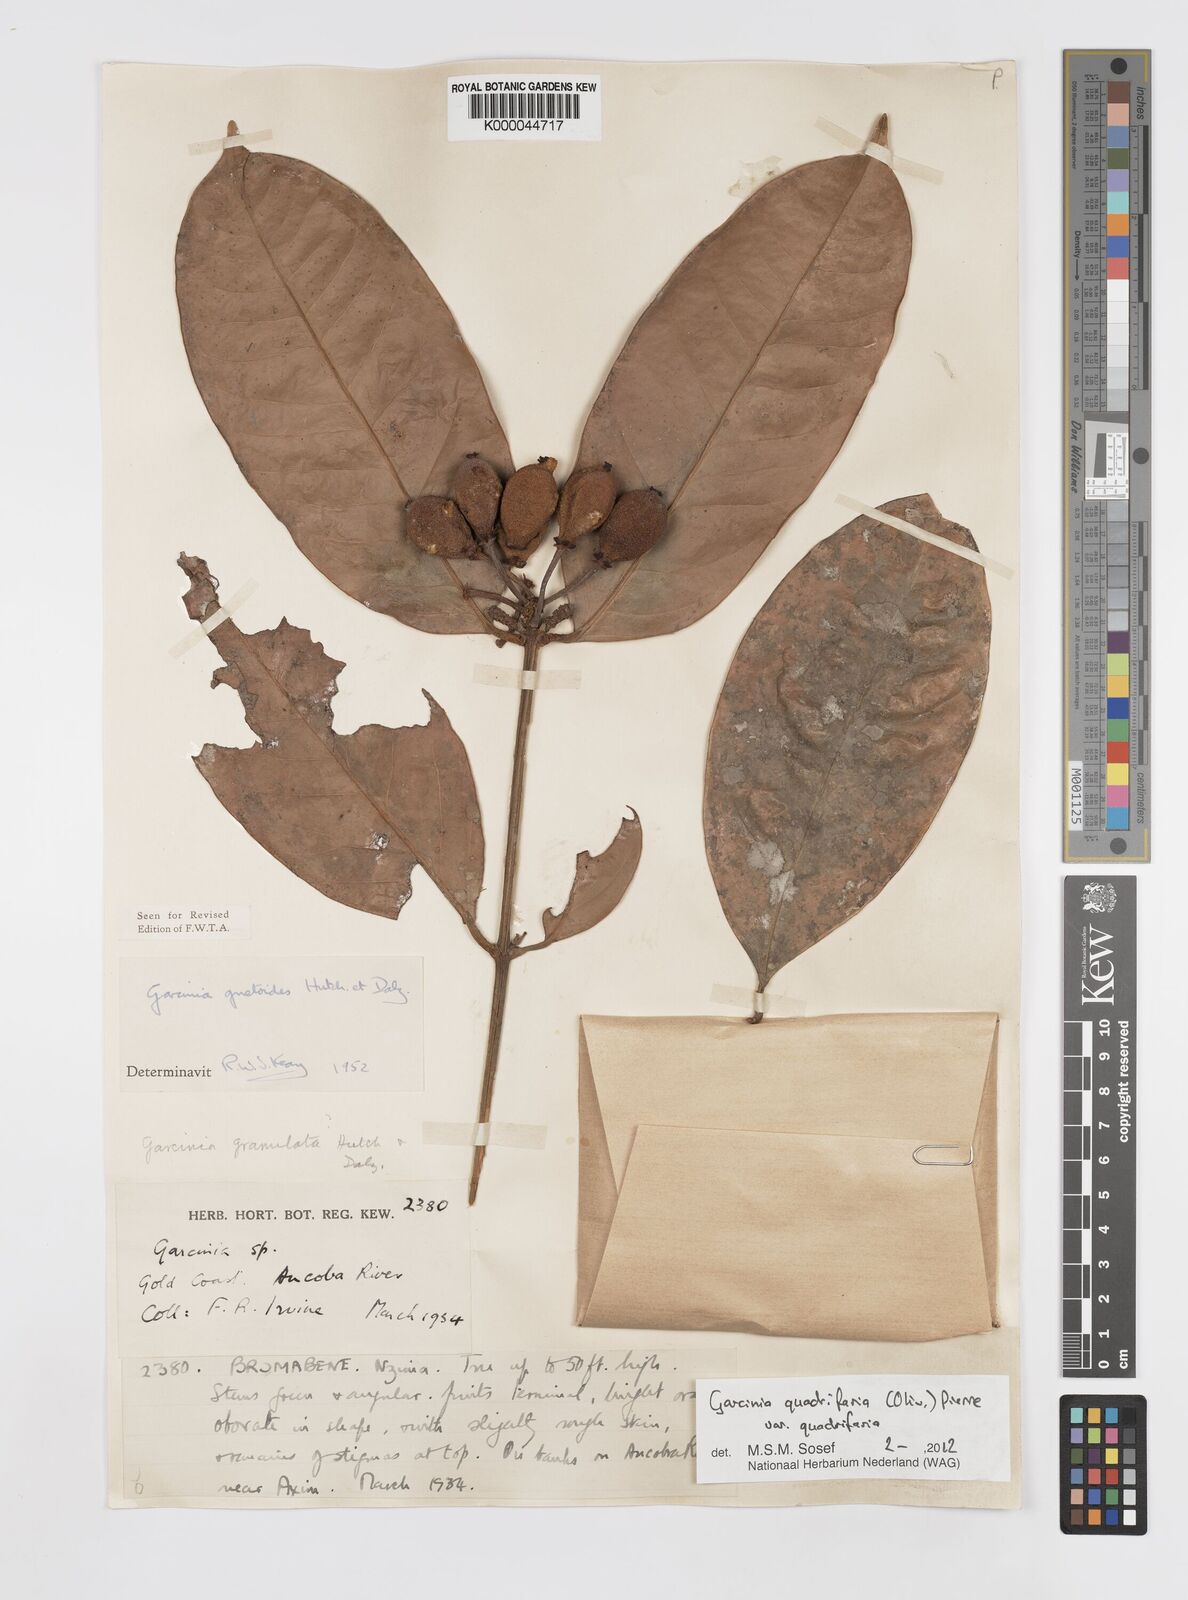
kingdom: Plantae
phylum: Tracheophyta
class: Magnoliopsida
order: Malpighiales
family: Clusiaceae
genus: Garcinia
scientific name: Garcinia gnetoides
